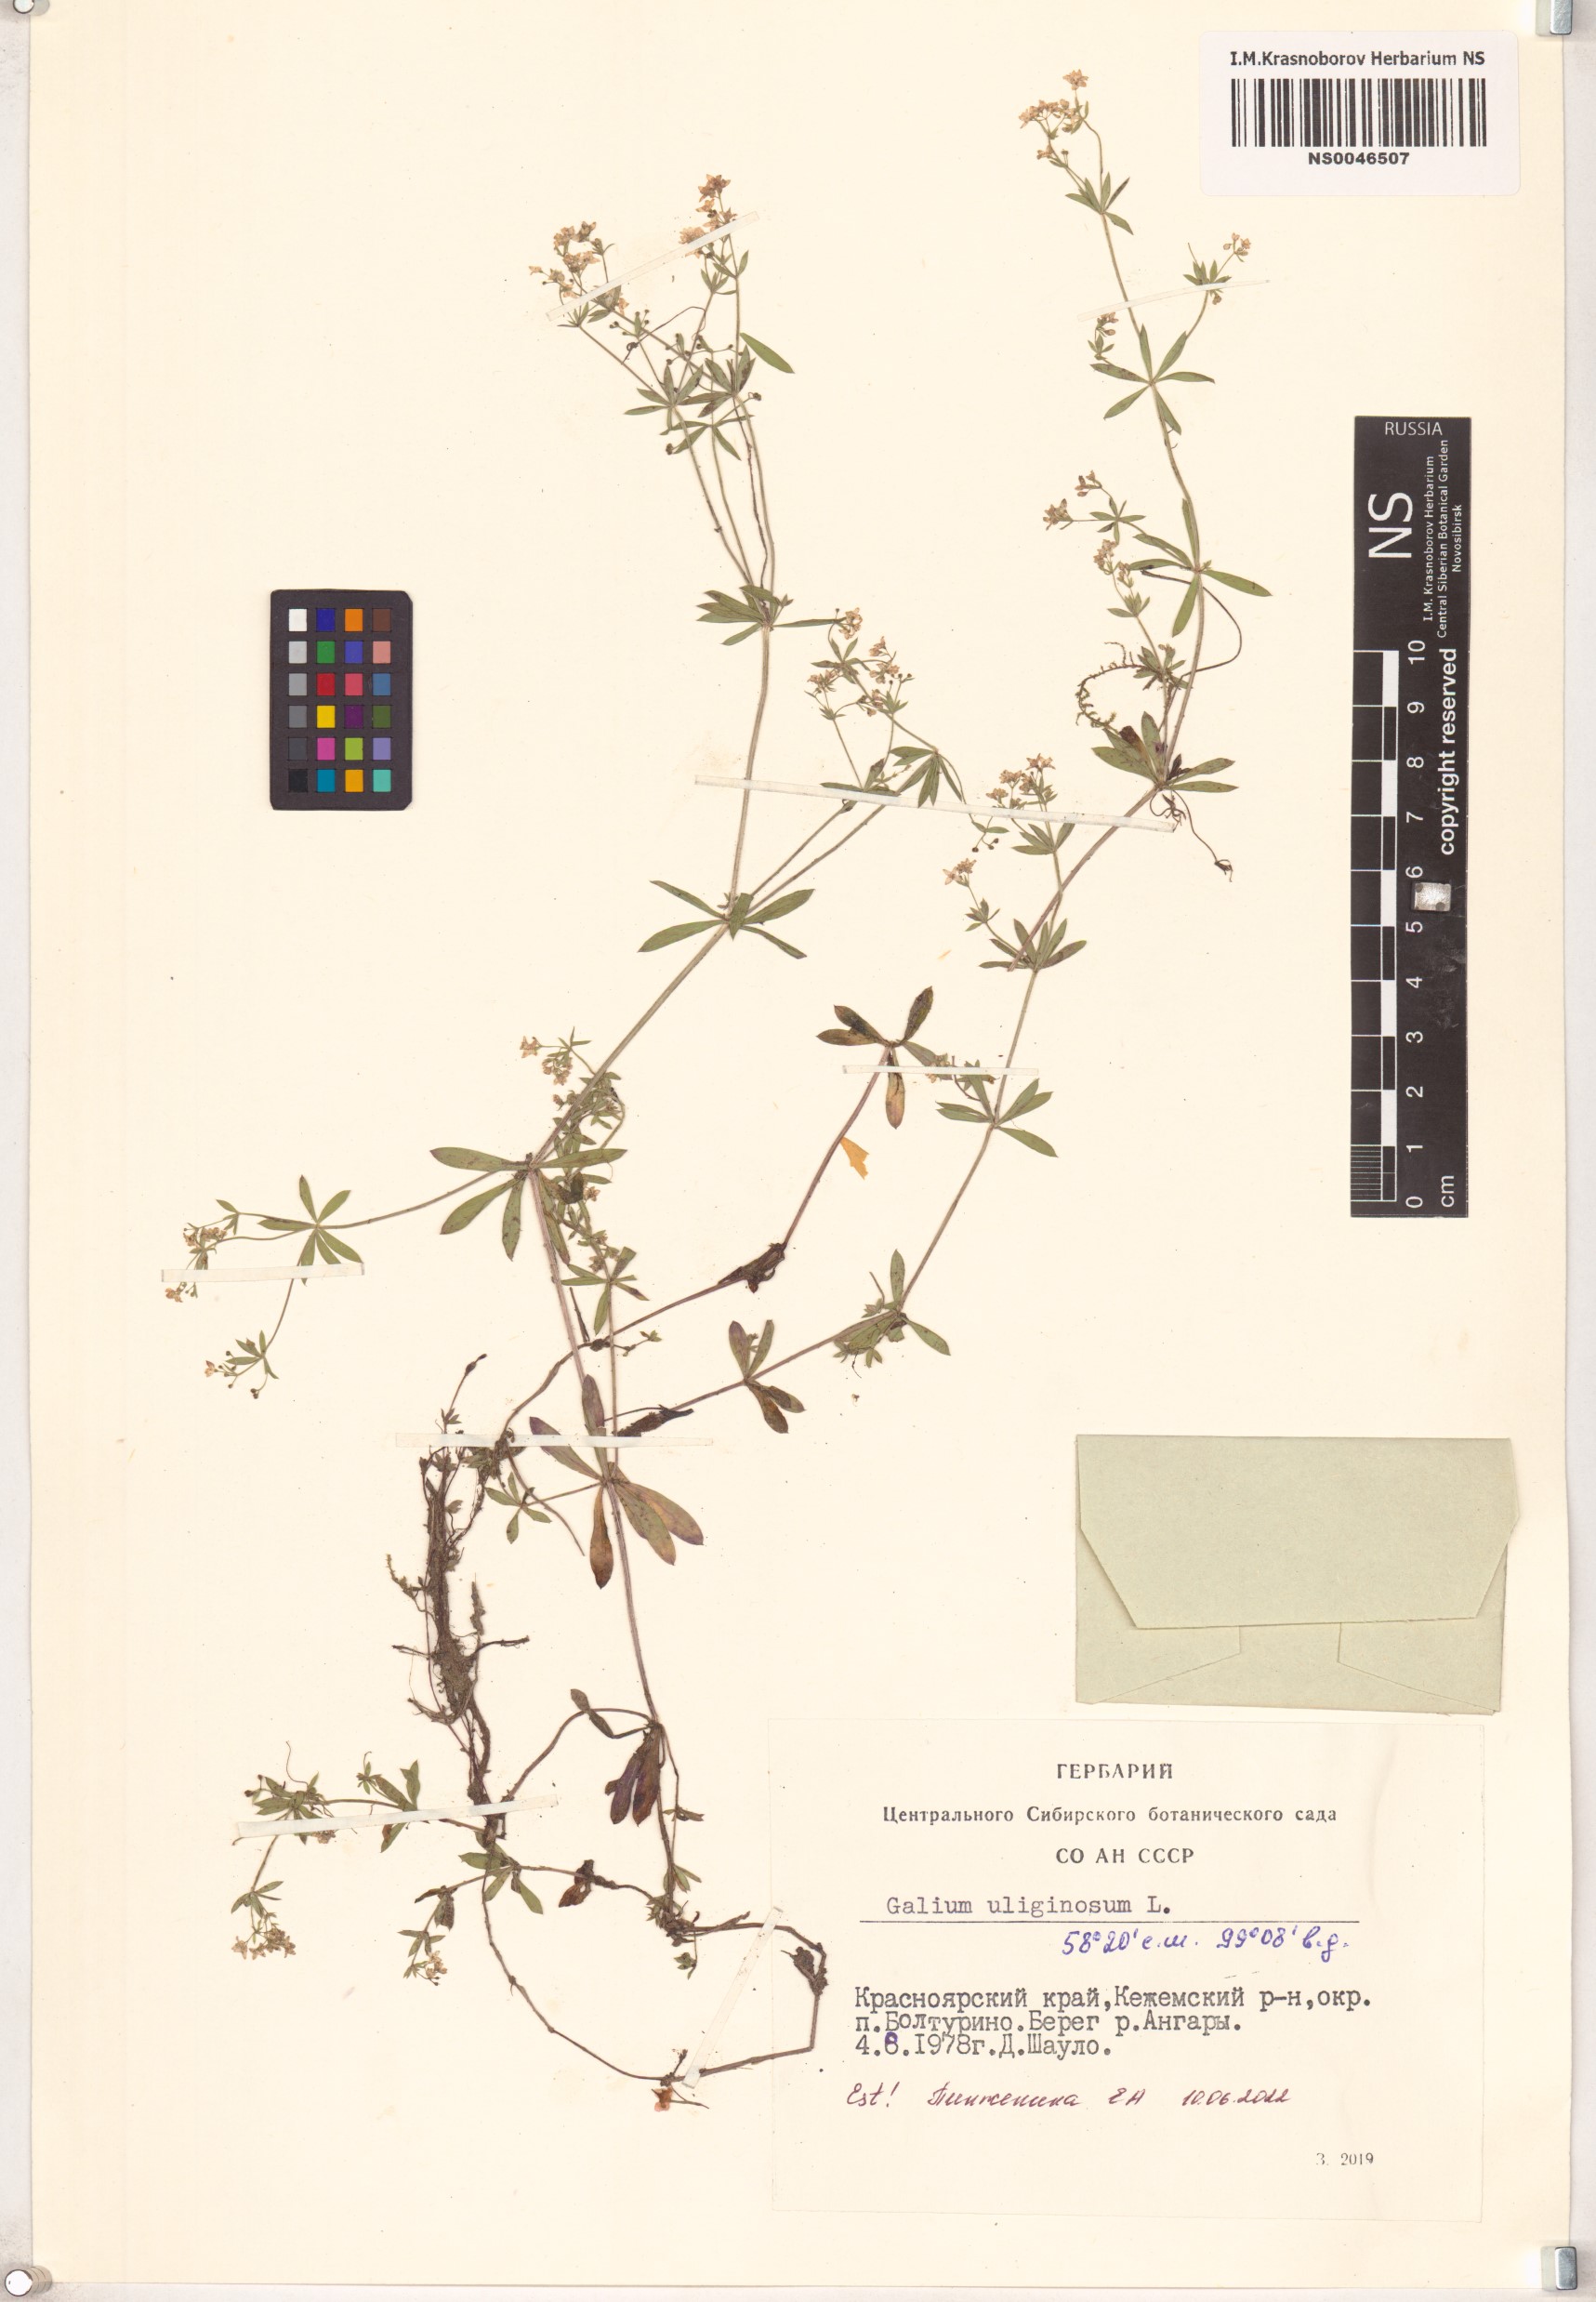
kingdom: Plantae
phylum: Tracheophyta
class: Magnoliopsida
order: Gentianales
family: Rubiaceae
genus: Galium
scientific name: Galium uliginosum
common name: Fen bedstraw
